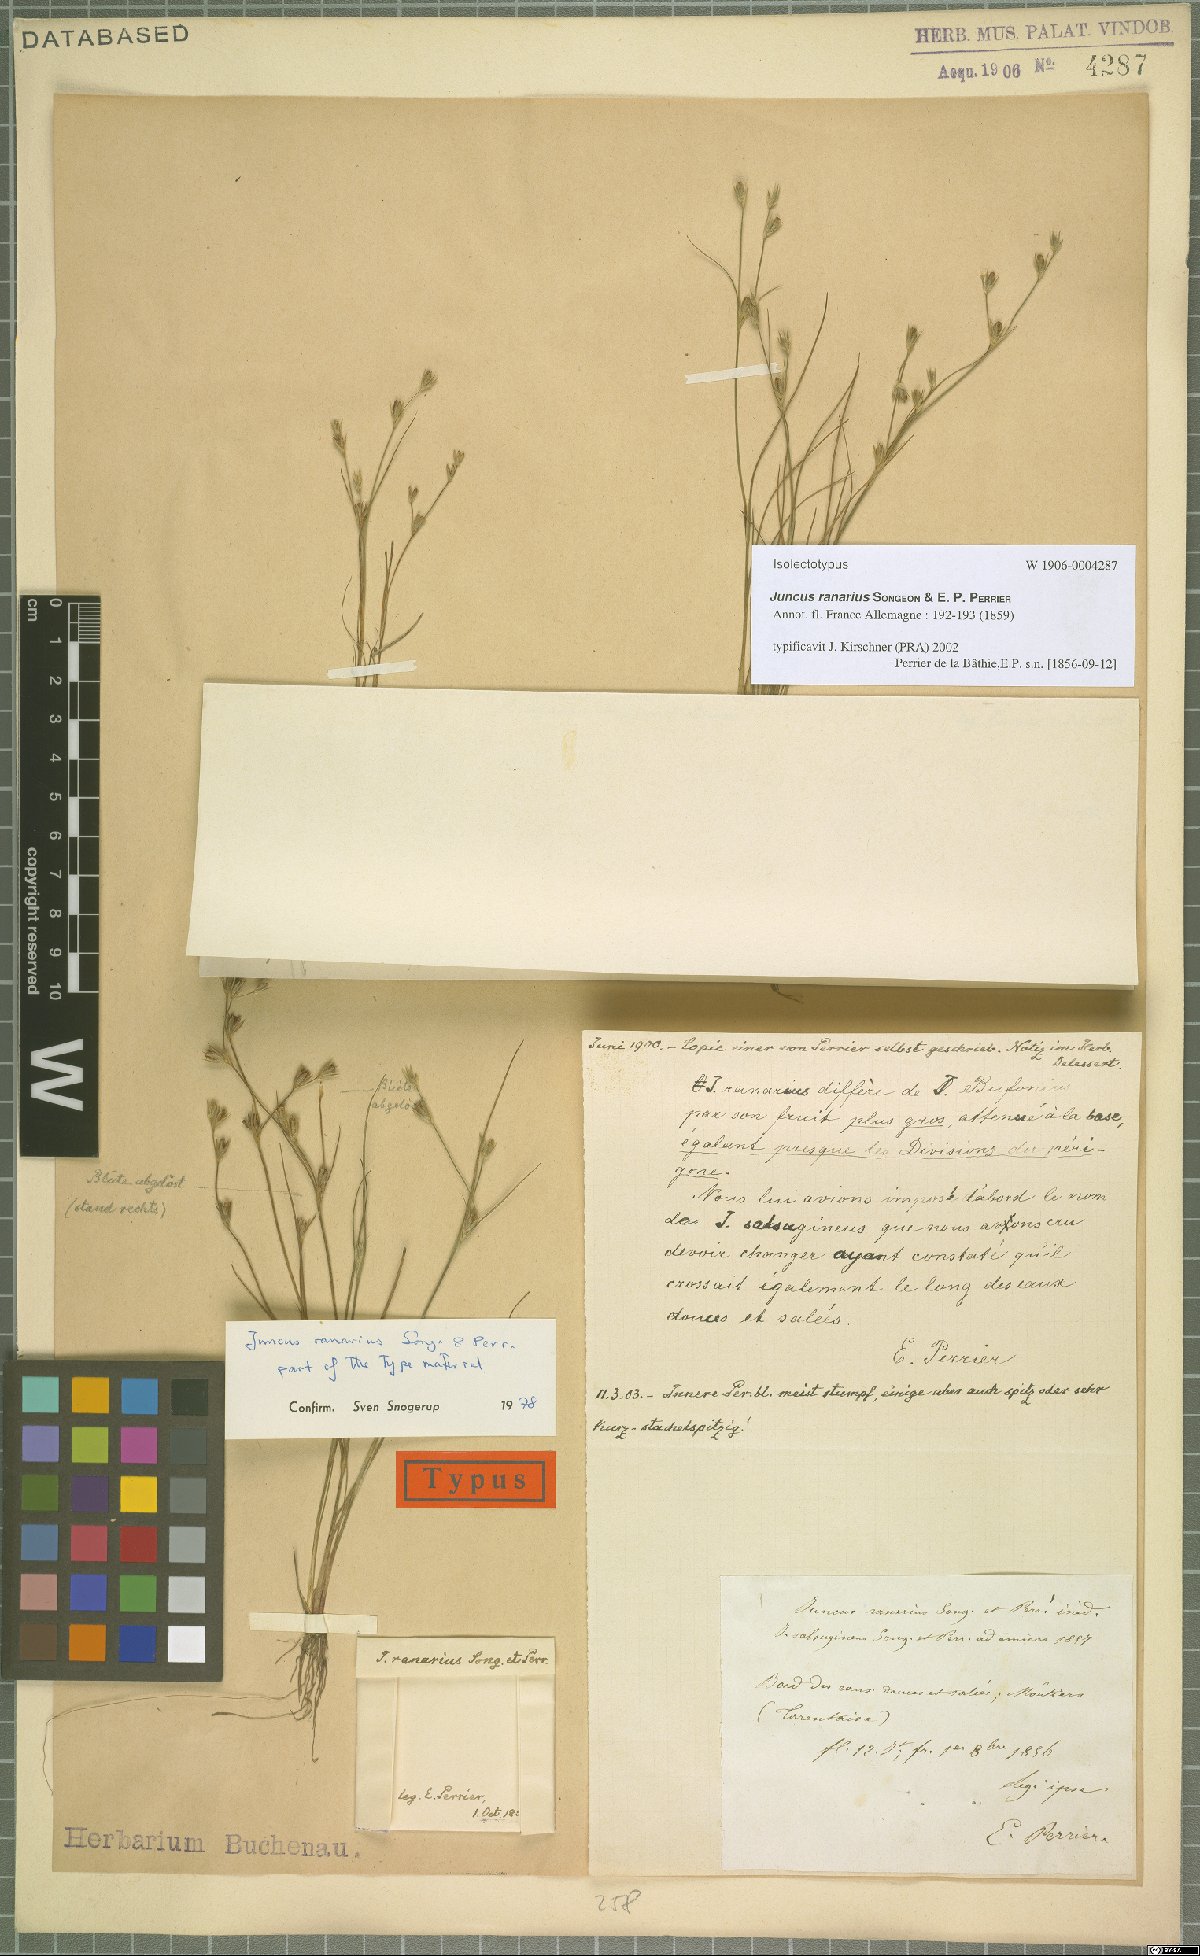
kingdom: Plantae
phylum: Tracheophyta
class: Liliopsida
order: Poales
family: Juncaceae
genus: Juncus
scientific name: Juncus ranarius
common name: Frog rush
